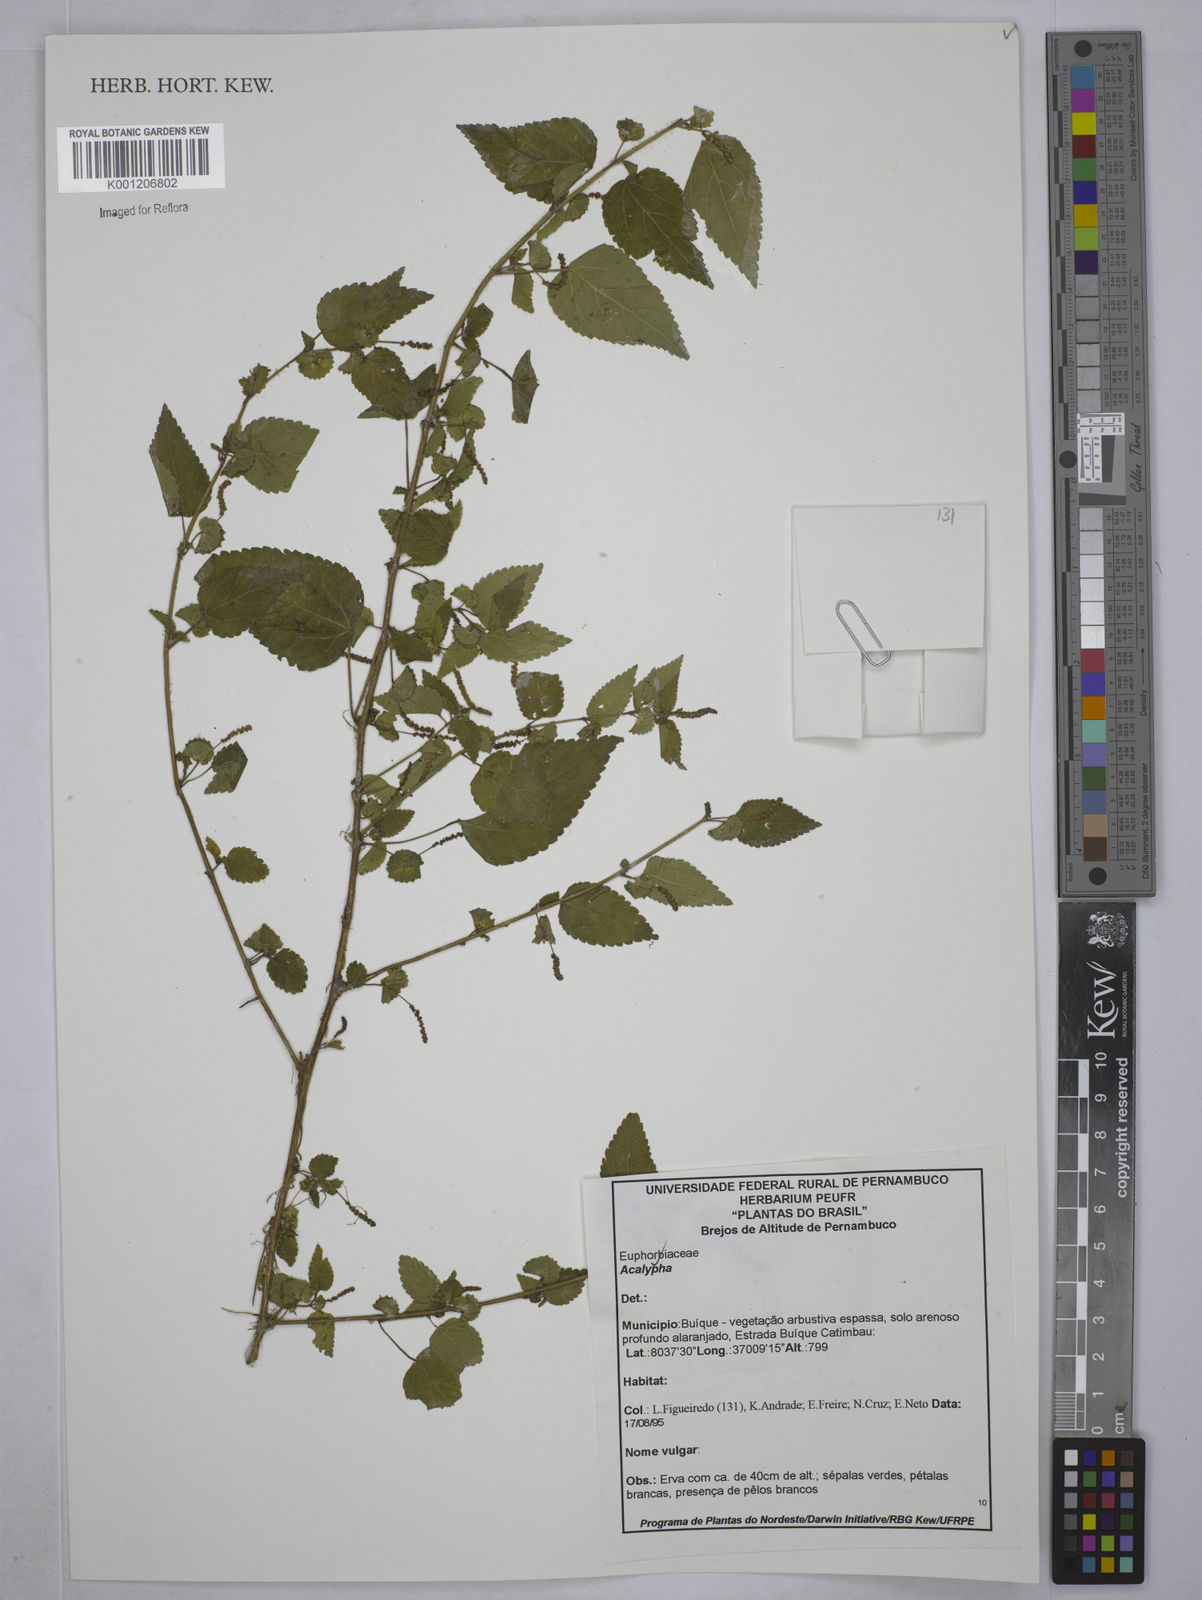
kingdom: Plantae
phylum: Tracheophyta
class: Magnoliopsida
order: Malpighiales
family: Euphorbiaceae
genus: Acalypha
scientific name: Acalypha
